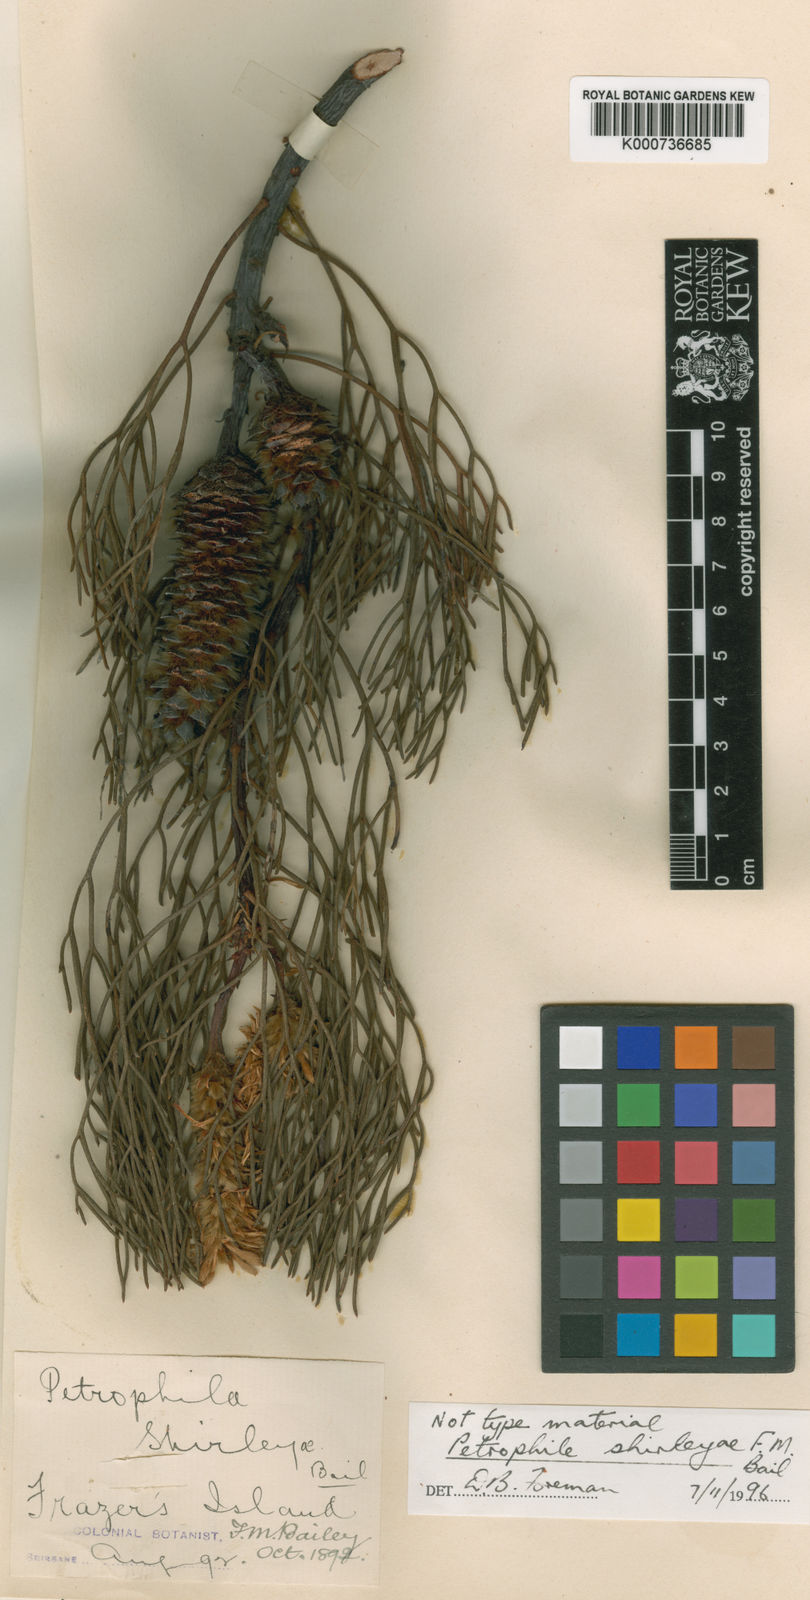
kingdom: Plantae
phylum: Tracheophyta
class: Magnoliopsida
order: Proteales
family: Proteaceae
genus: Petrophile
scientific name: Petrophile shirleyae
